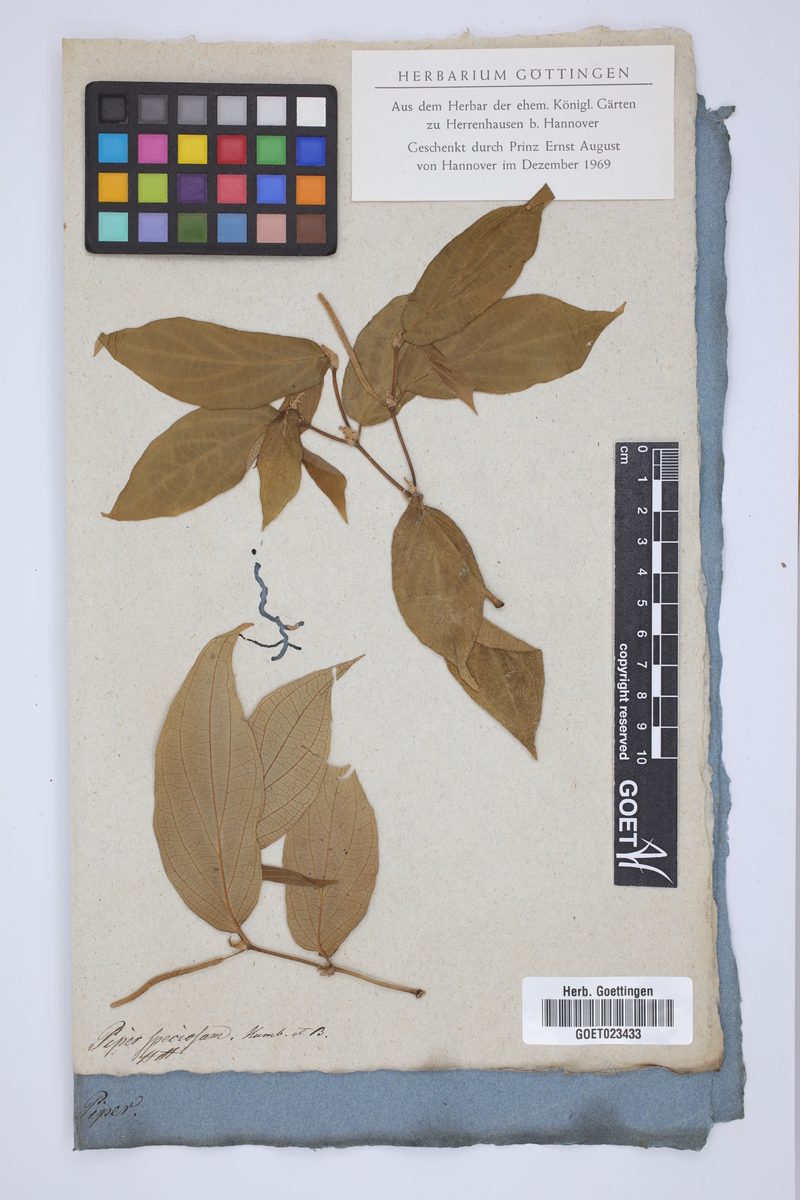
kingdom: Plantae
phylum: Tracheophyta
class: Magnoliopsida
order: Piperales
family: Piperaceae
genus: Piper
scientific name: Piper peltatum
